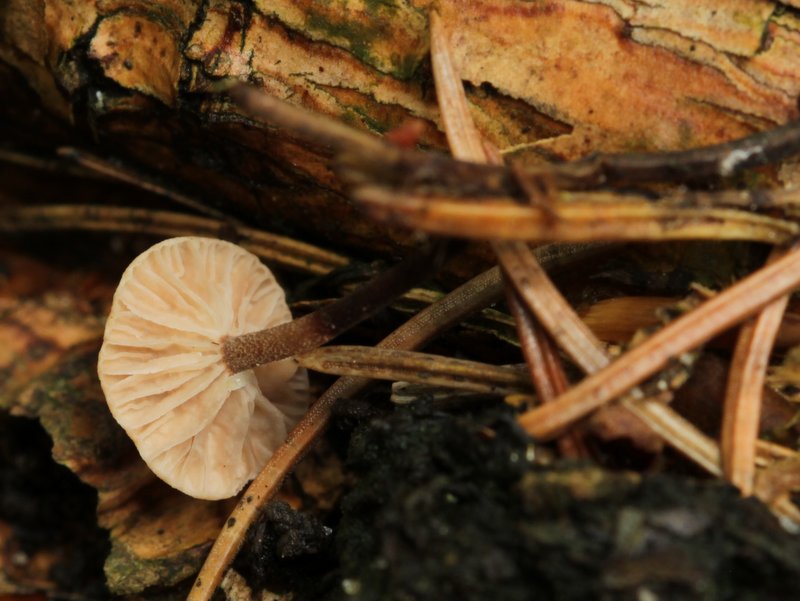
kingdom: Fungi
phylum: Basidiomycota
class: Agaricomycetes
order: Agaricales
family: Omphalotaceae
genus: Paragymnopus
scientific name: Paragymnopus perforans
